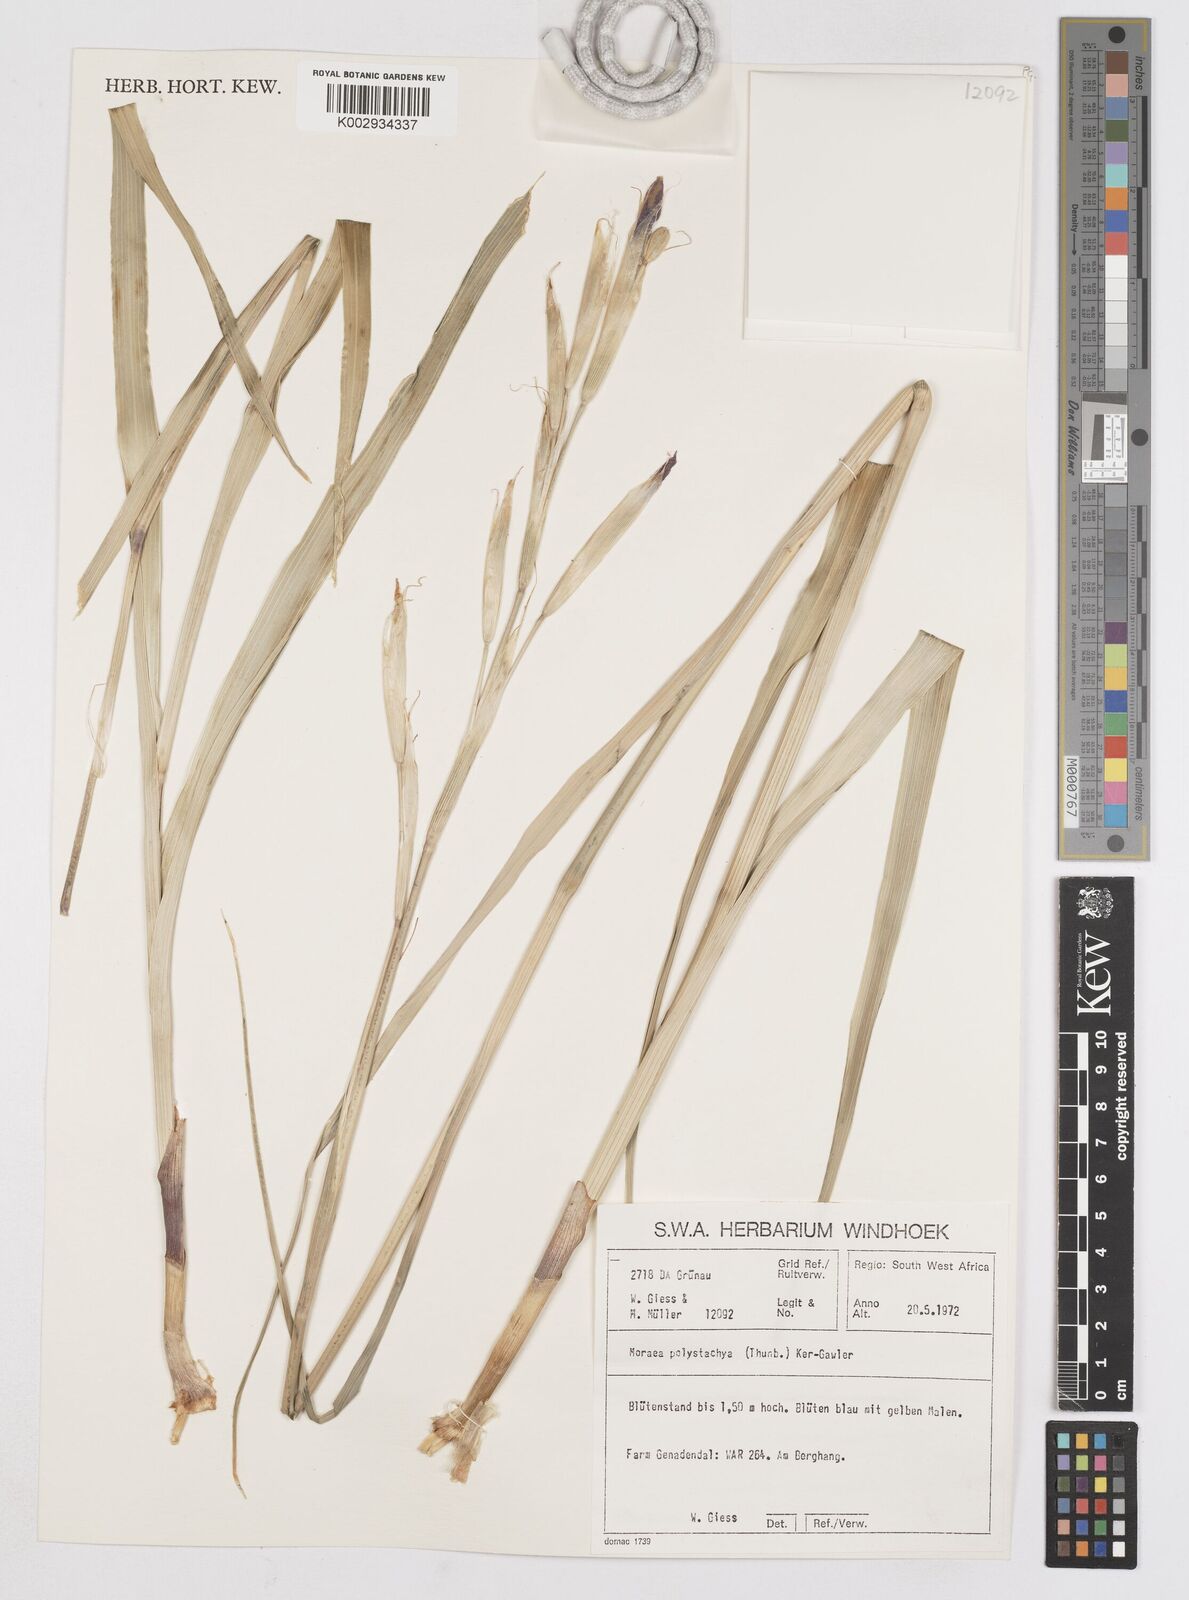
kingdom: Plantae
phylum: Tracheophyta
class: Liliopsida
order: Asparagales
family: Iridaceae
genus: Moraea
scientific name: Moraea polystachya
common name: Blue-tulip
